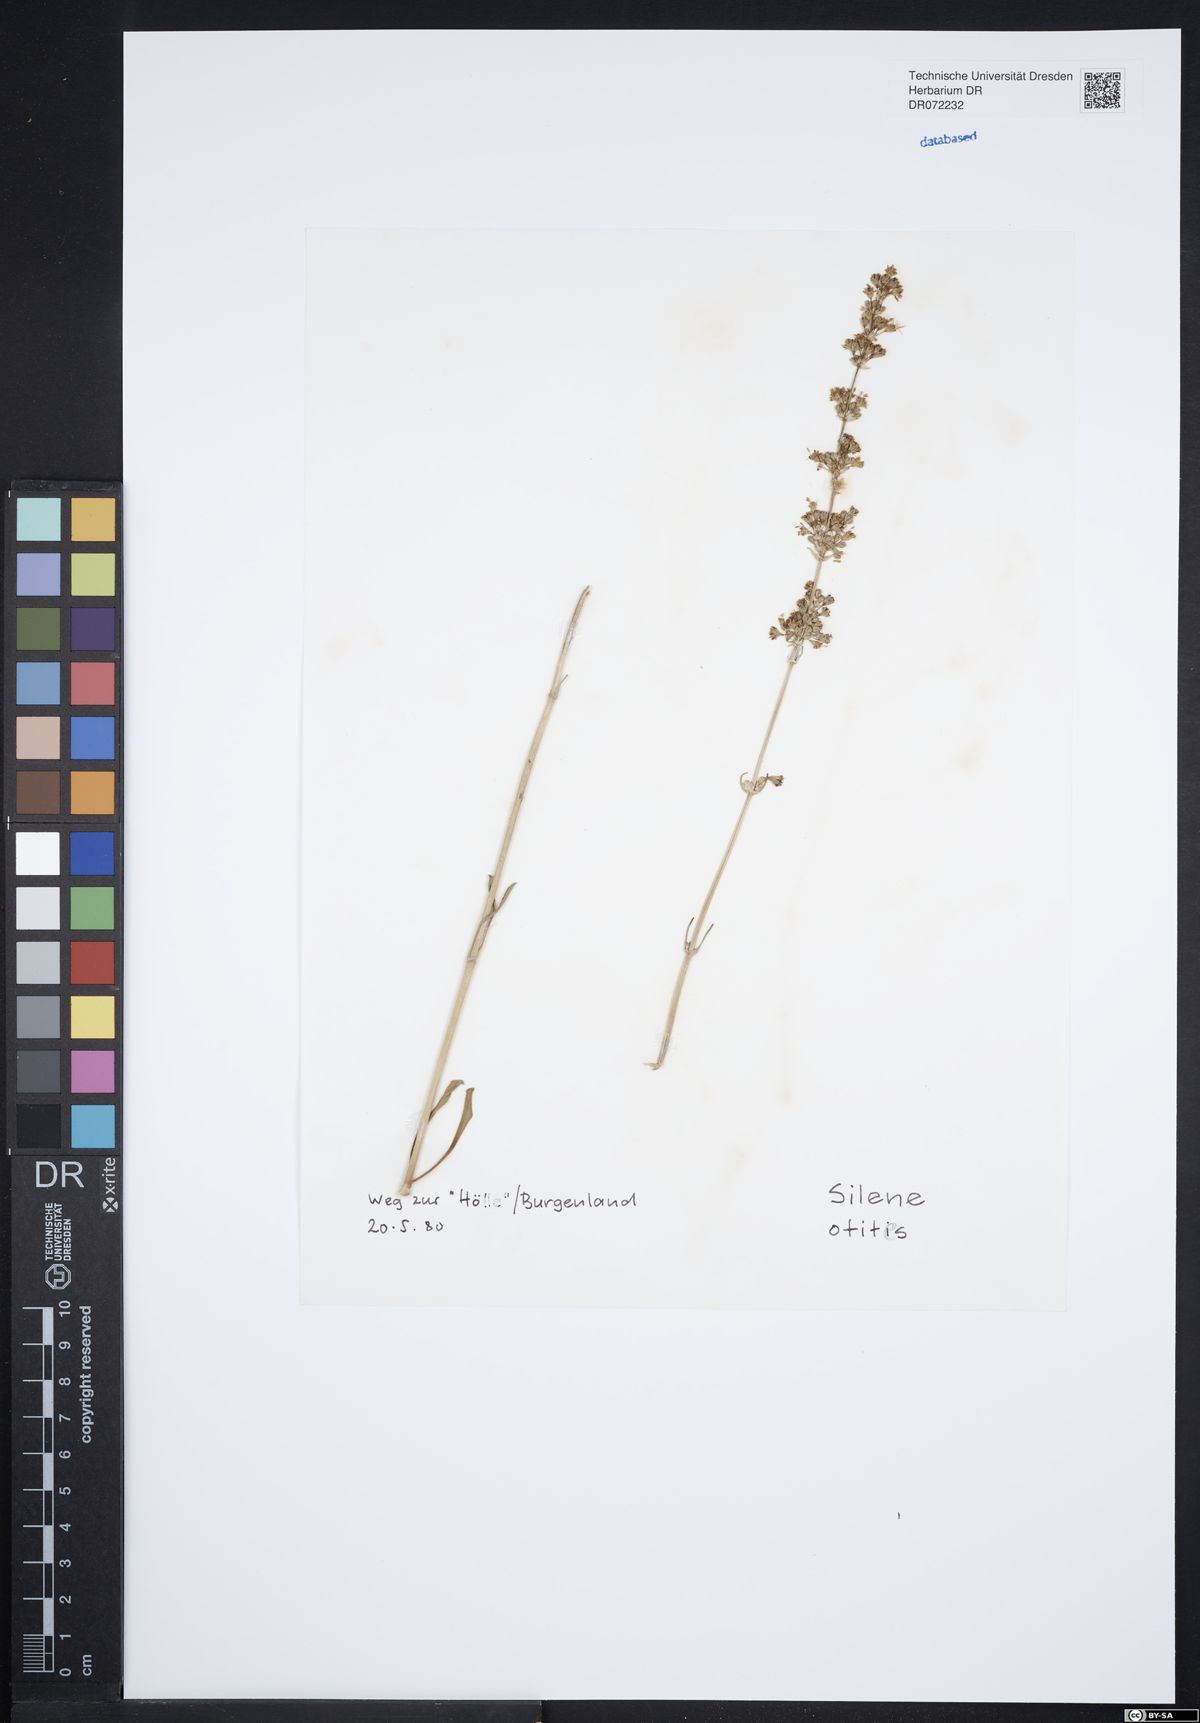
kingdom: Plantae
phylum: Tracheophyta
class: Magnoliopsida
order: Caryophyllales
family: Caryophyllaceae
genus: Silene
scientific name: Silene otites
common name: Spanish catchfly
